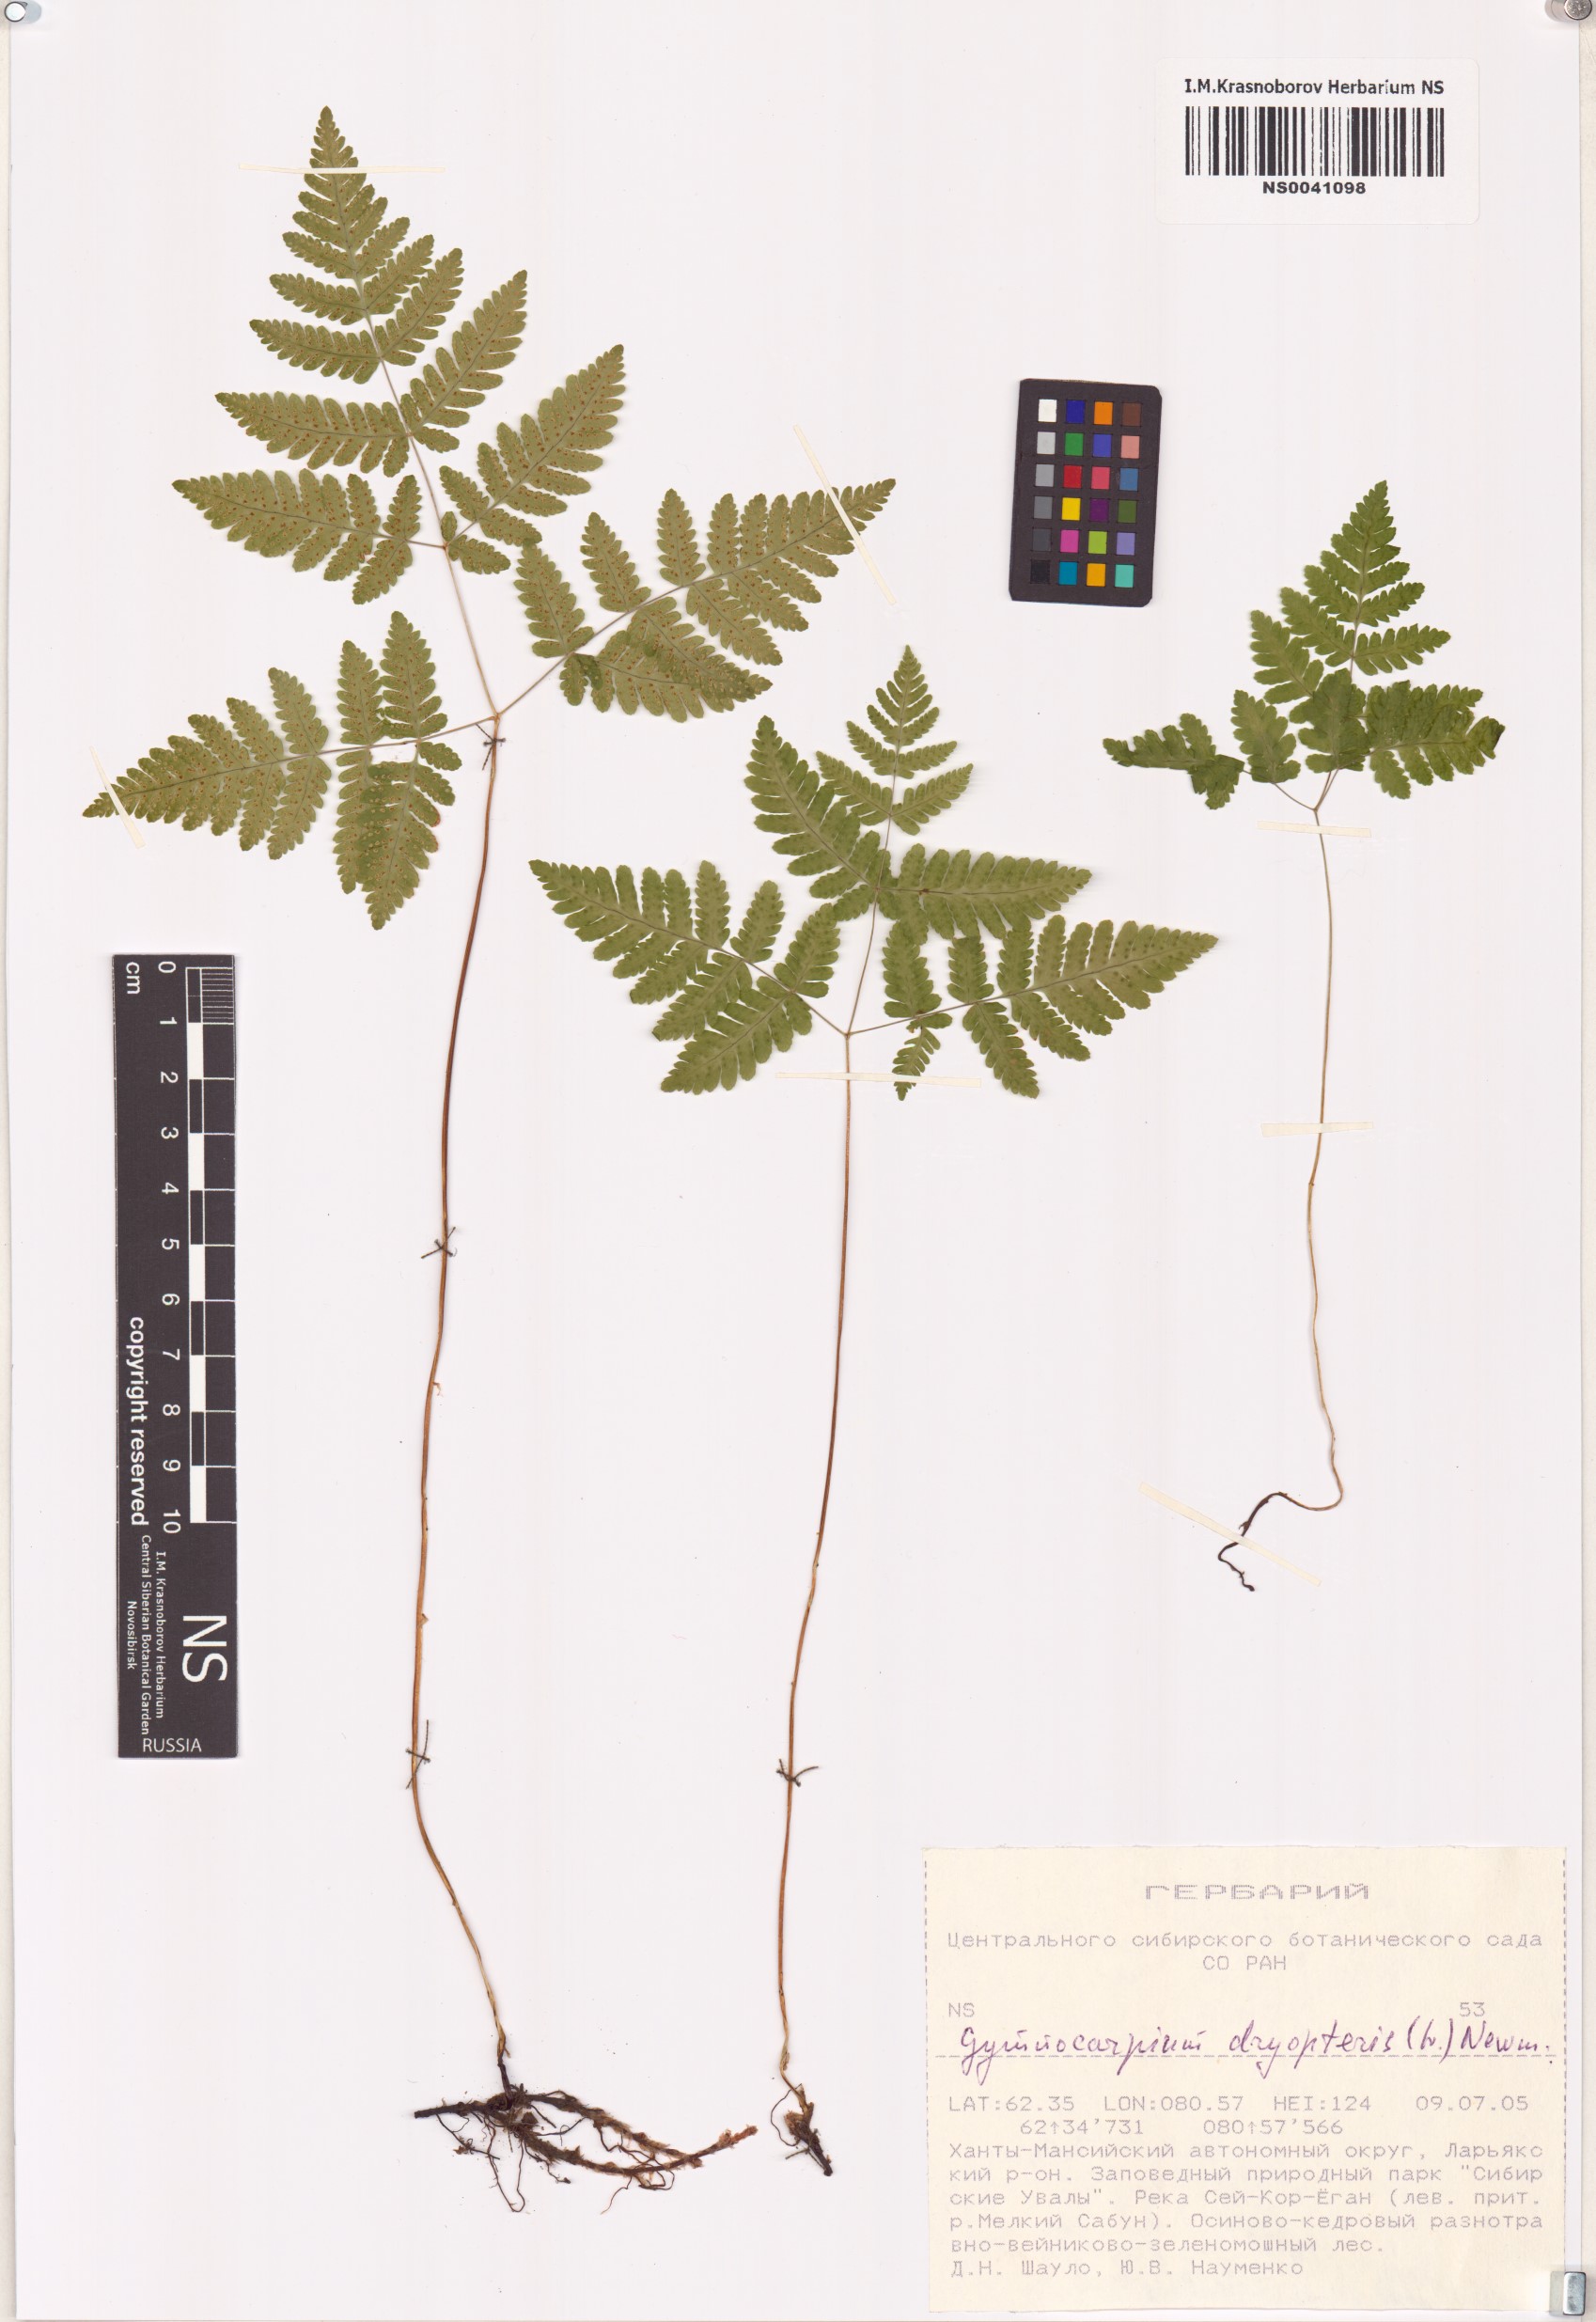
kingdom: Plantae
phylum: Tracheophyta
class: Polypodiopsida
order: Polypodiales
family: Cystopteridaceae
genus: Gymnocarpium
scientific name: Gymnocarpium dryopteris
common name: Oak fern
